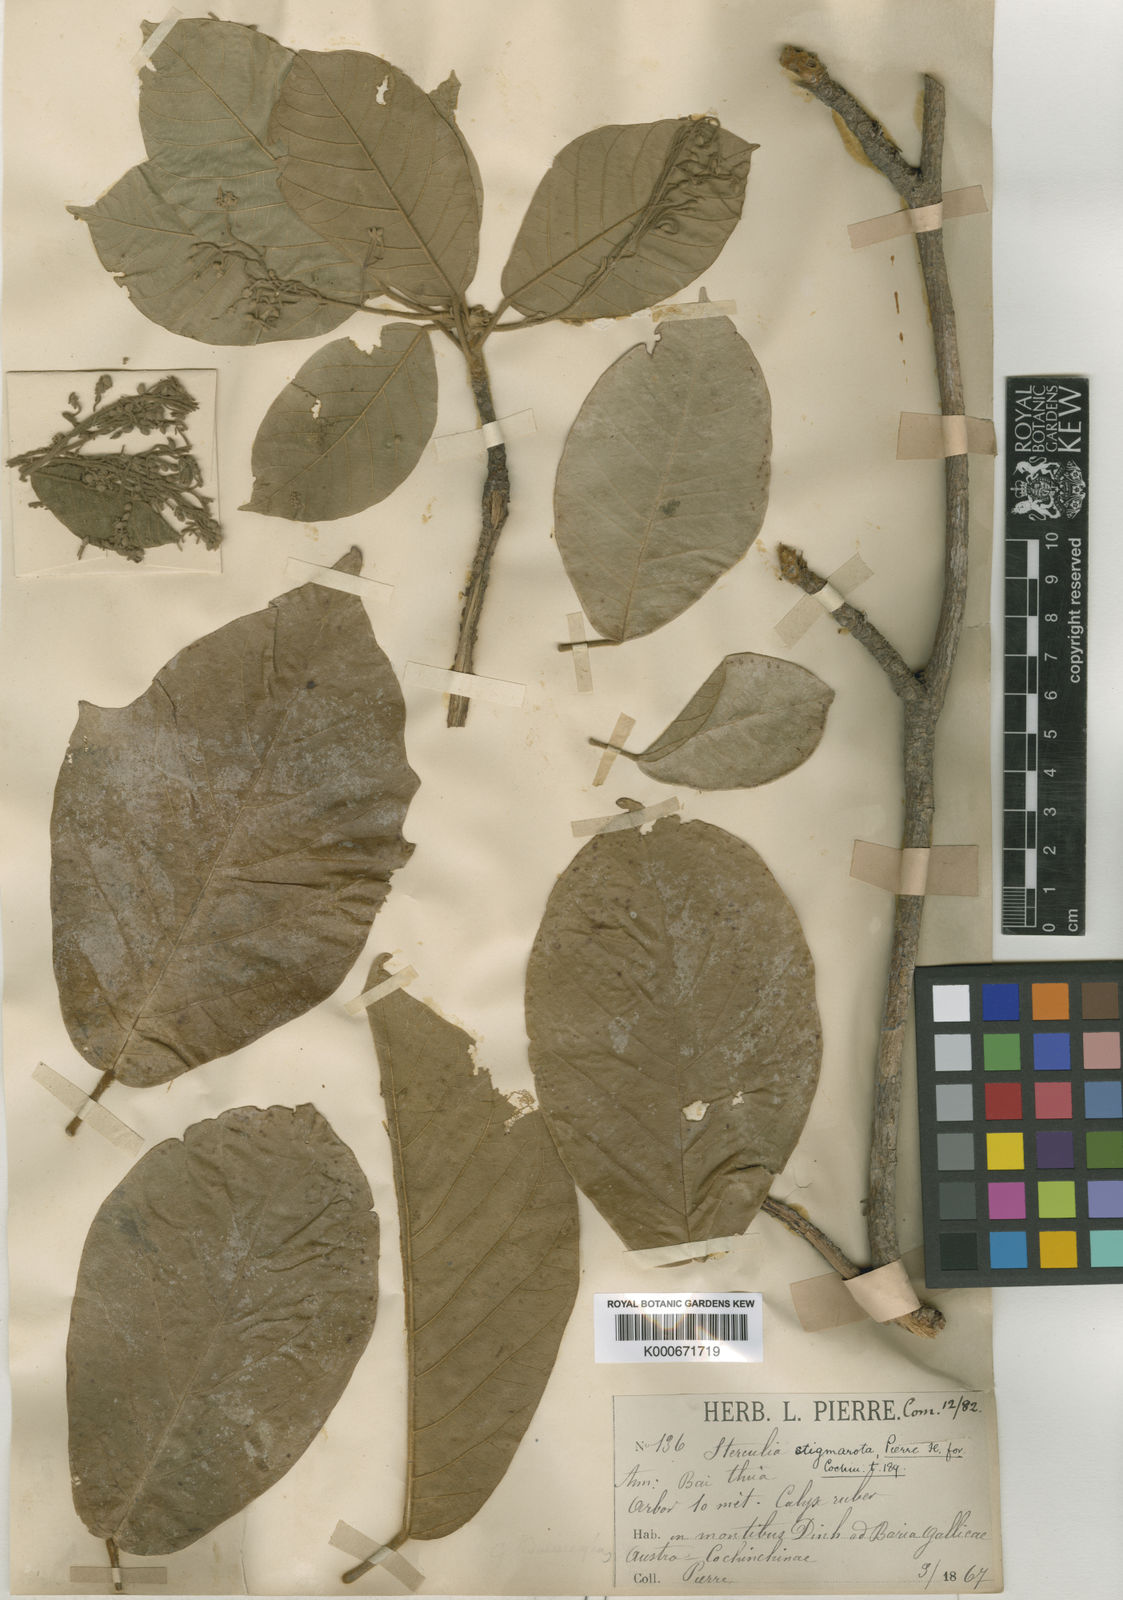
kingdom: Plantae
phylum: Tracheophyta
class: Magnoliopsida
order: Malvales
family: Malvaceae
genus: Sterculia
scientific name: Sterculia stigmarota
